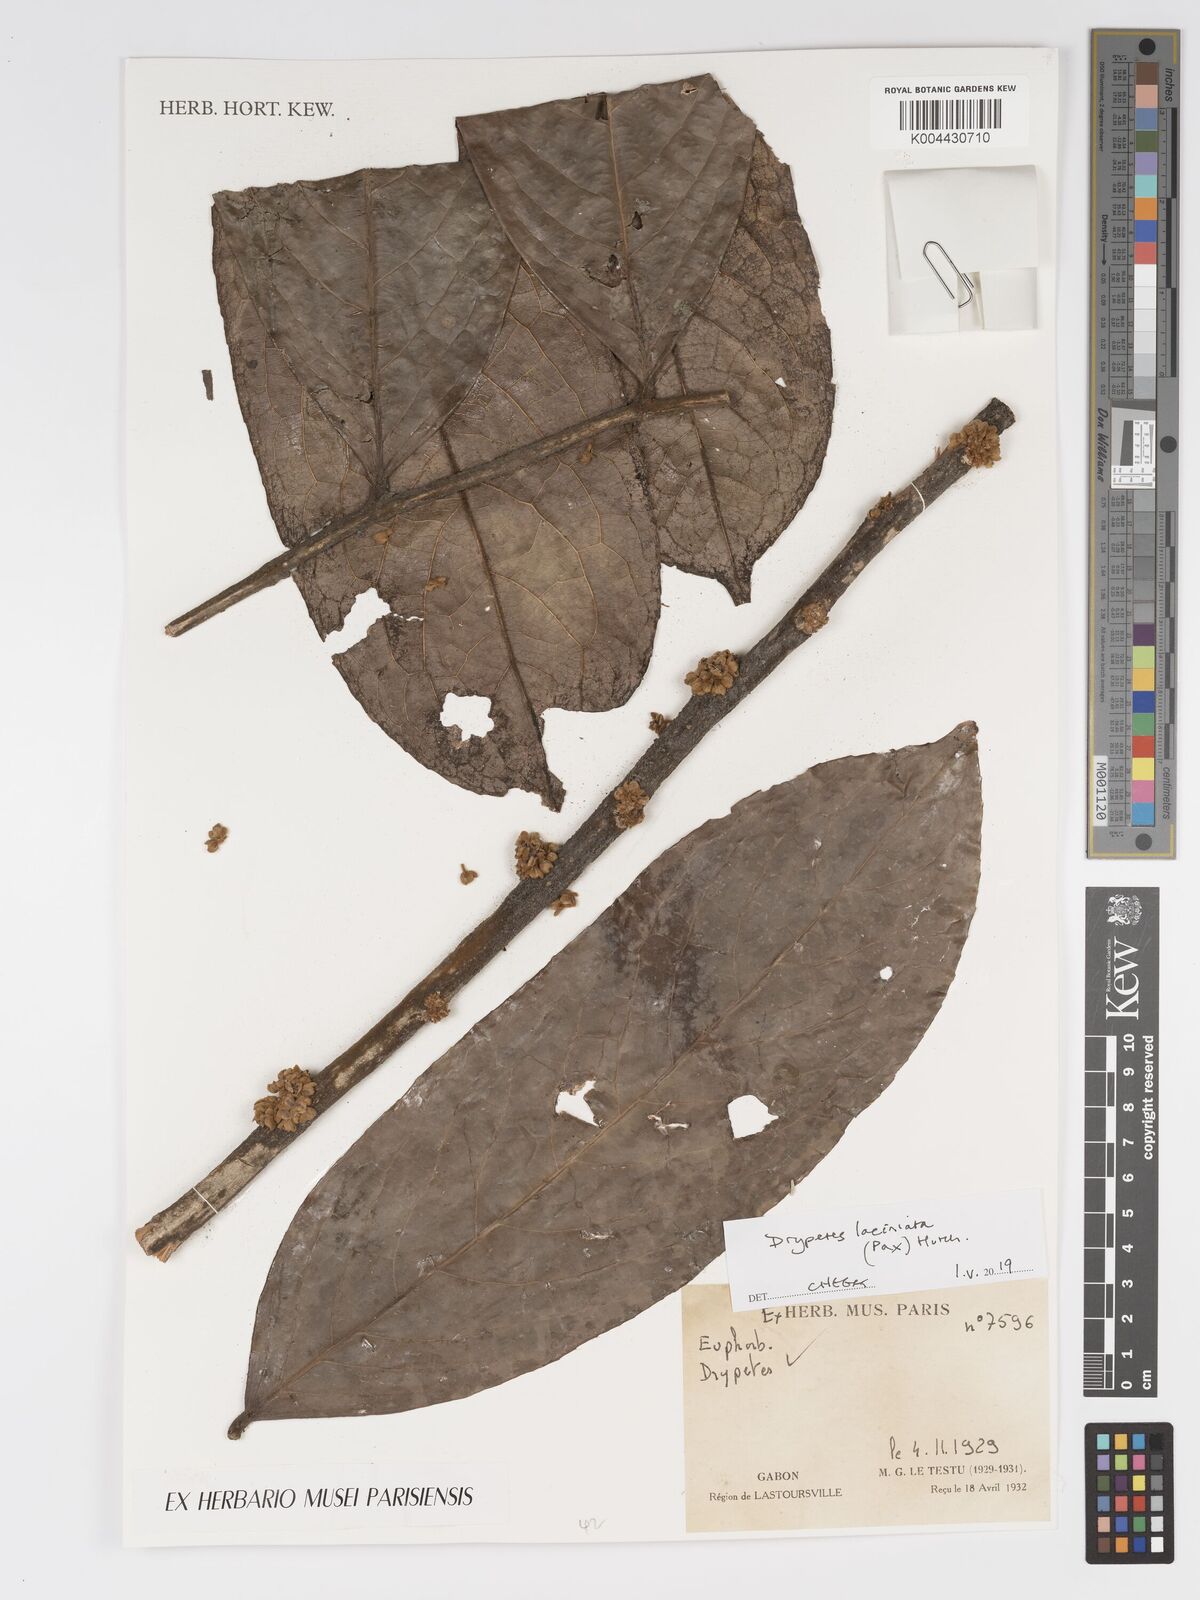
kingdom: Plantae
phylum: Tracheophyta
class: Magnoliopsida
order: Malpighiales
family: Putranjivaceae
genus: Drypetes
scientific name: Drypetes laciniata
